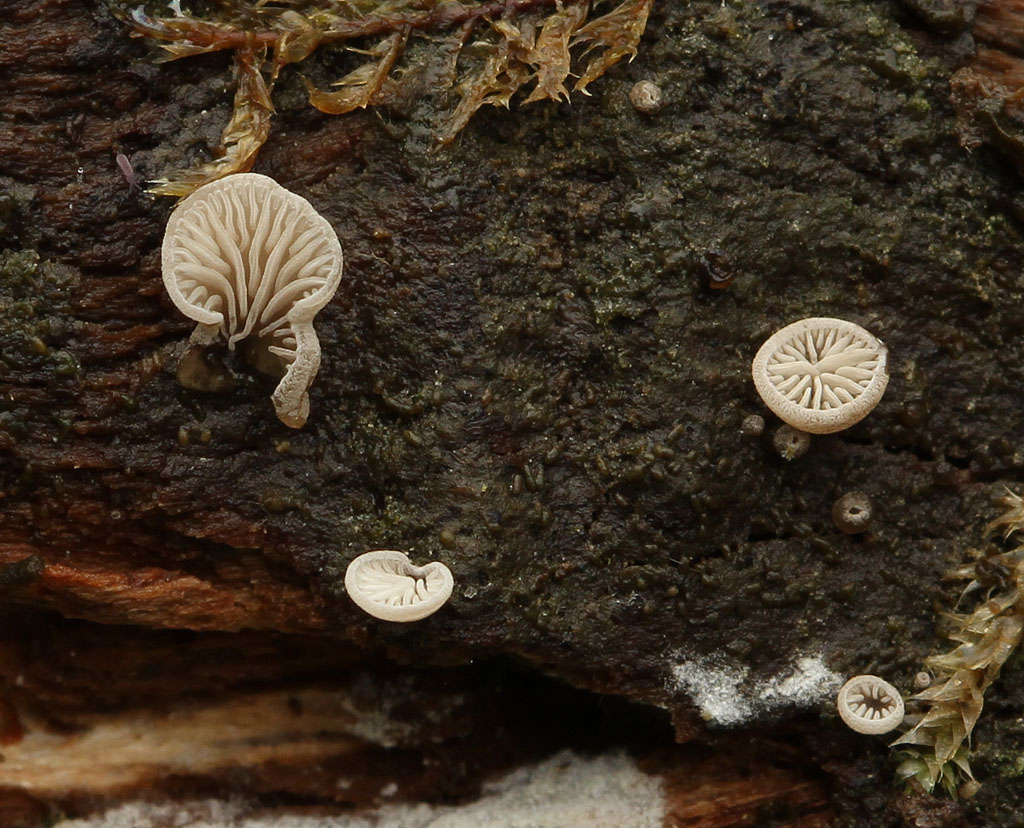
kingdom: Fungi
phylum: Basidiomycota
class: Agaricomycetes
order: Agaricales
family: Pleurotaceae
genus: Resupinatus
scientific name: Resupinatus applicatus
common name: lysfiltet barkhat
